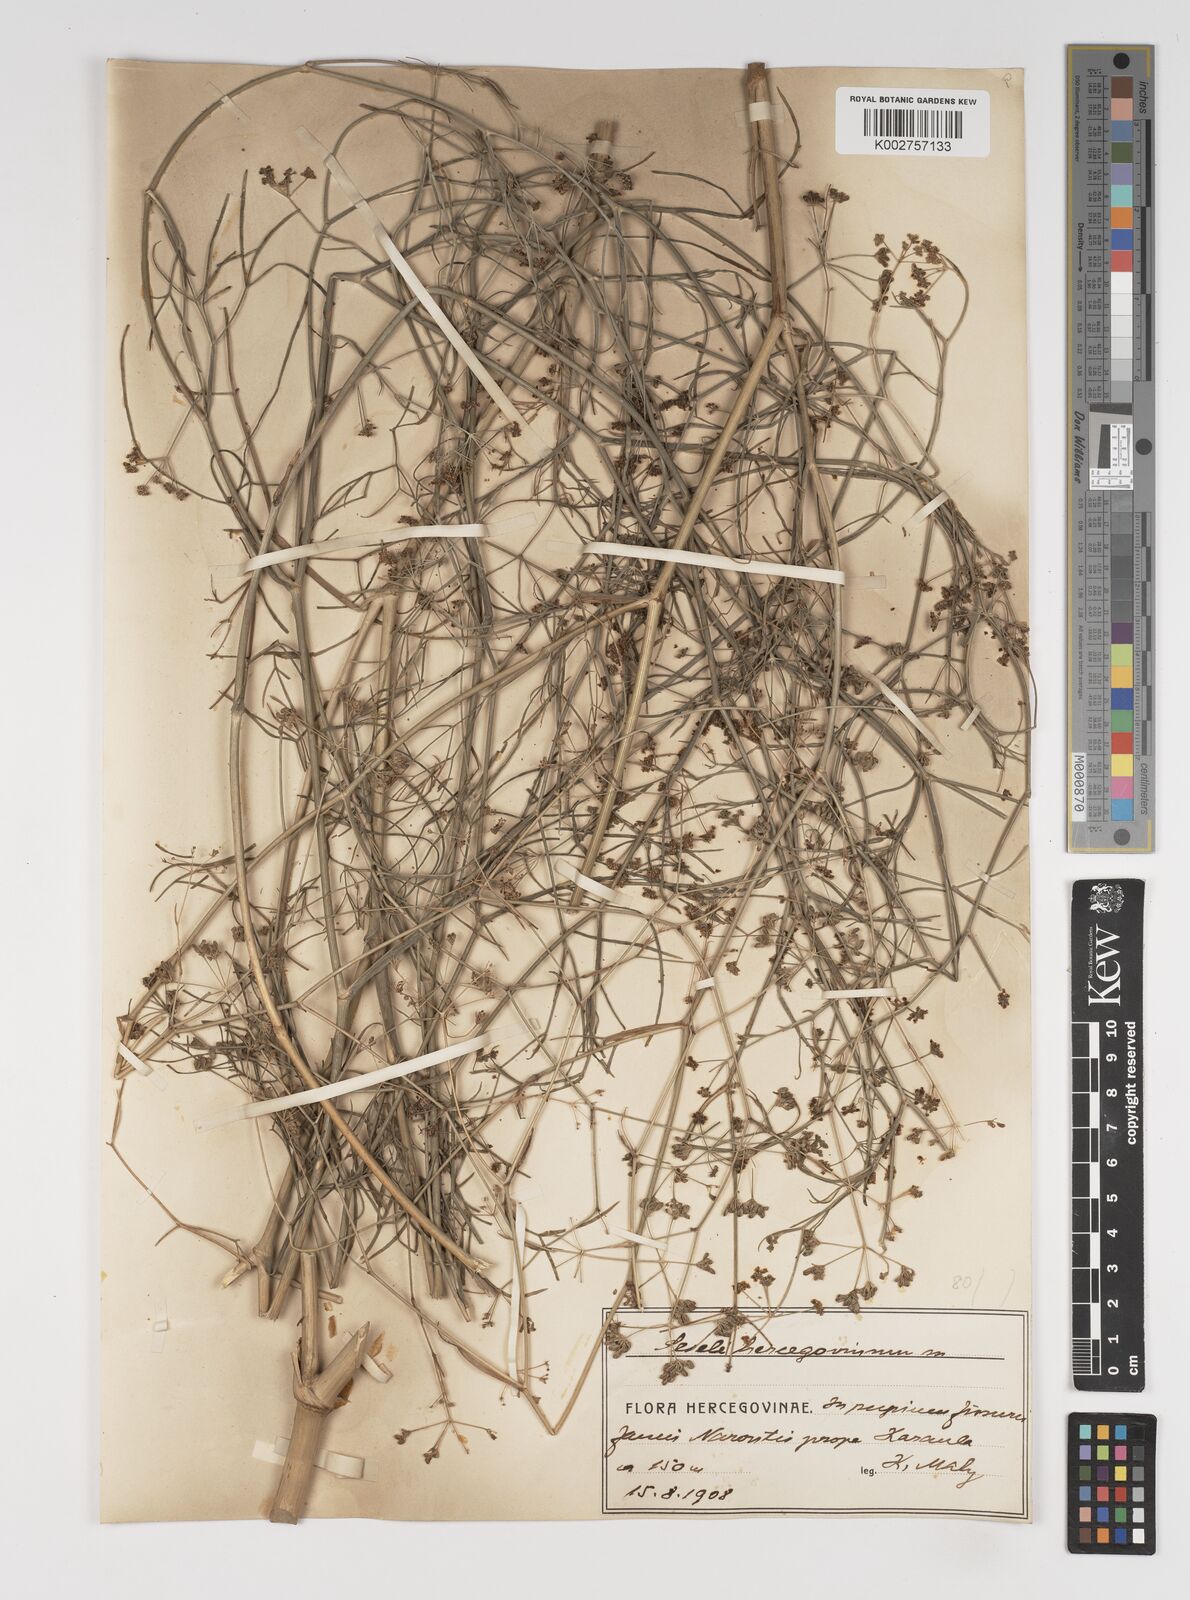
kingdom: Plantae
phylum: Tracheophyta
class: Magnoliopsida
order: Apiales
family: Apiaceae
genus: Seseli
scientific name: Seseli longifolium
